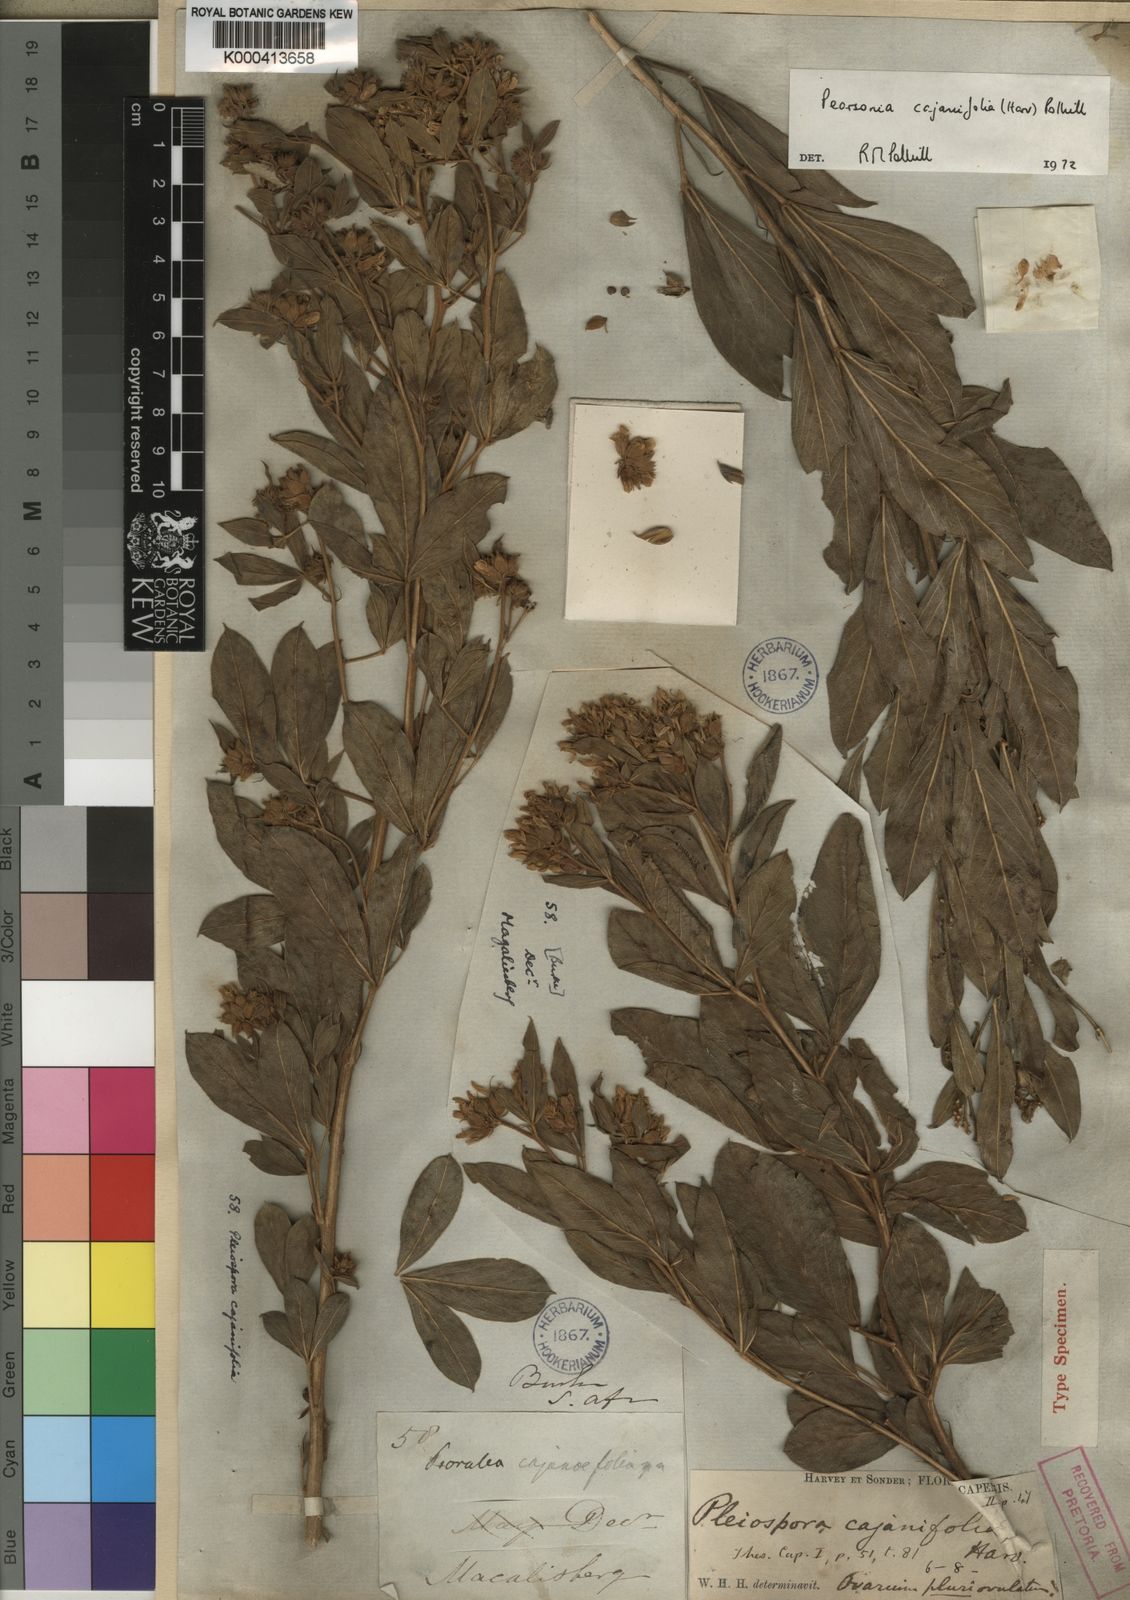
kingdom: Plantae
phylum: Tracheophyta
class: Magnoliopsida
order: Fabales
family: Fabaceae
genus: Pearsonia
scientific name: Pearsonia cajanifolia
